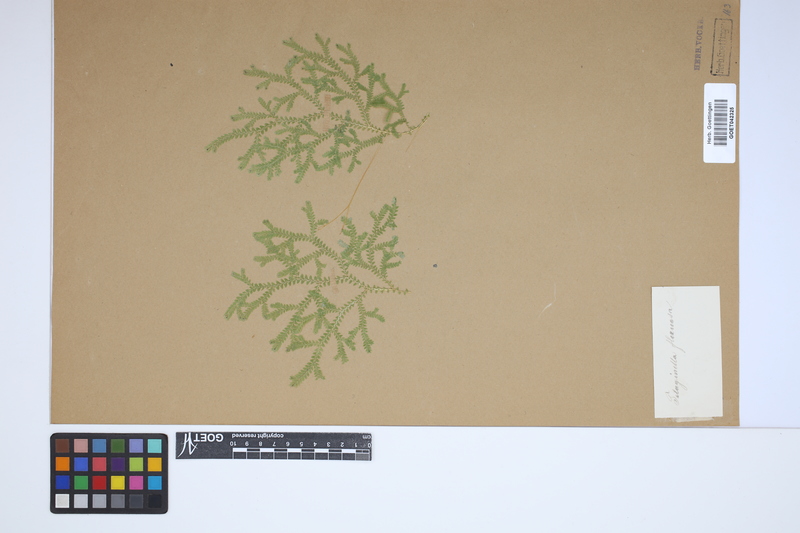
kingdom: Plantae
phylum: Tracheophyta
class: Lycopodiopsida
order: Selaginellales
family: Selaginellaceae
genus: Selaginella
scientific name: Selaginella flexuosa
